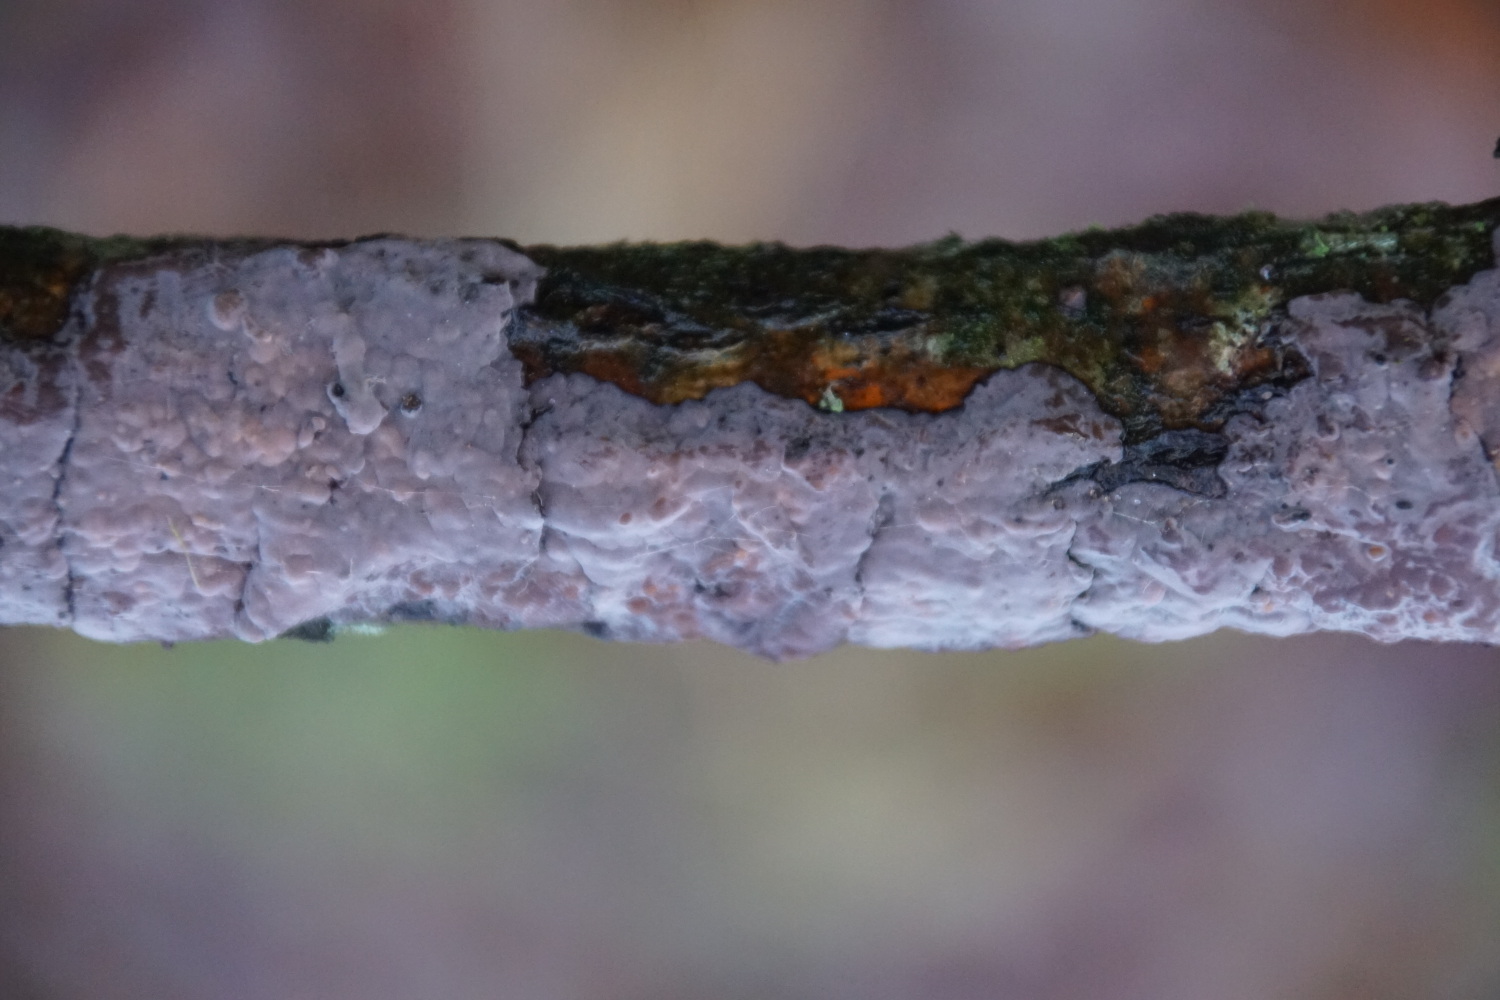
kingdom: Fungi
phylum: Basidiomycota
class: Agaricomycetes
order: Russulales
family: Peniophoraceae
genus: Peniophora
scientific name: Peniophora quercina
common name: ege-voksskind
